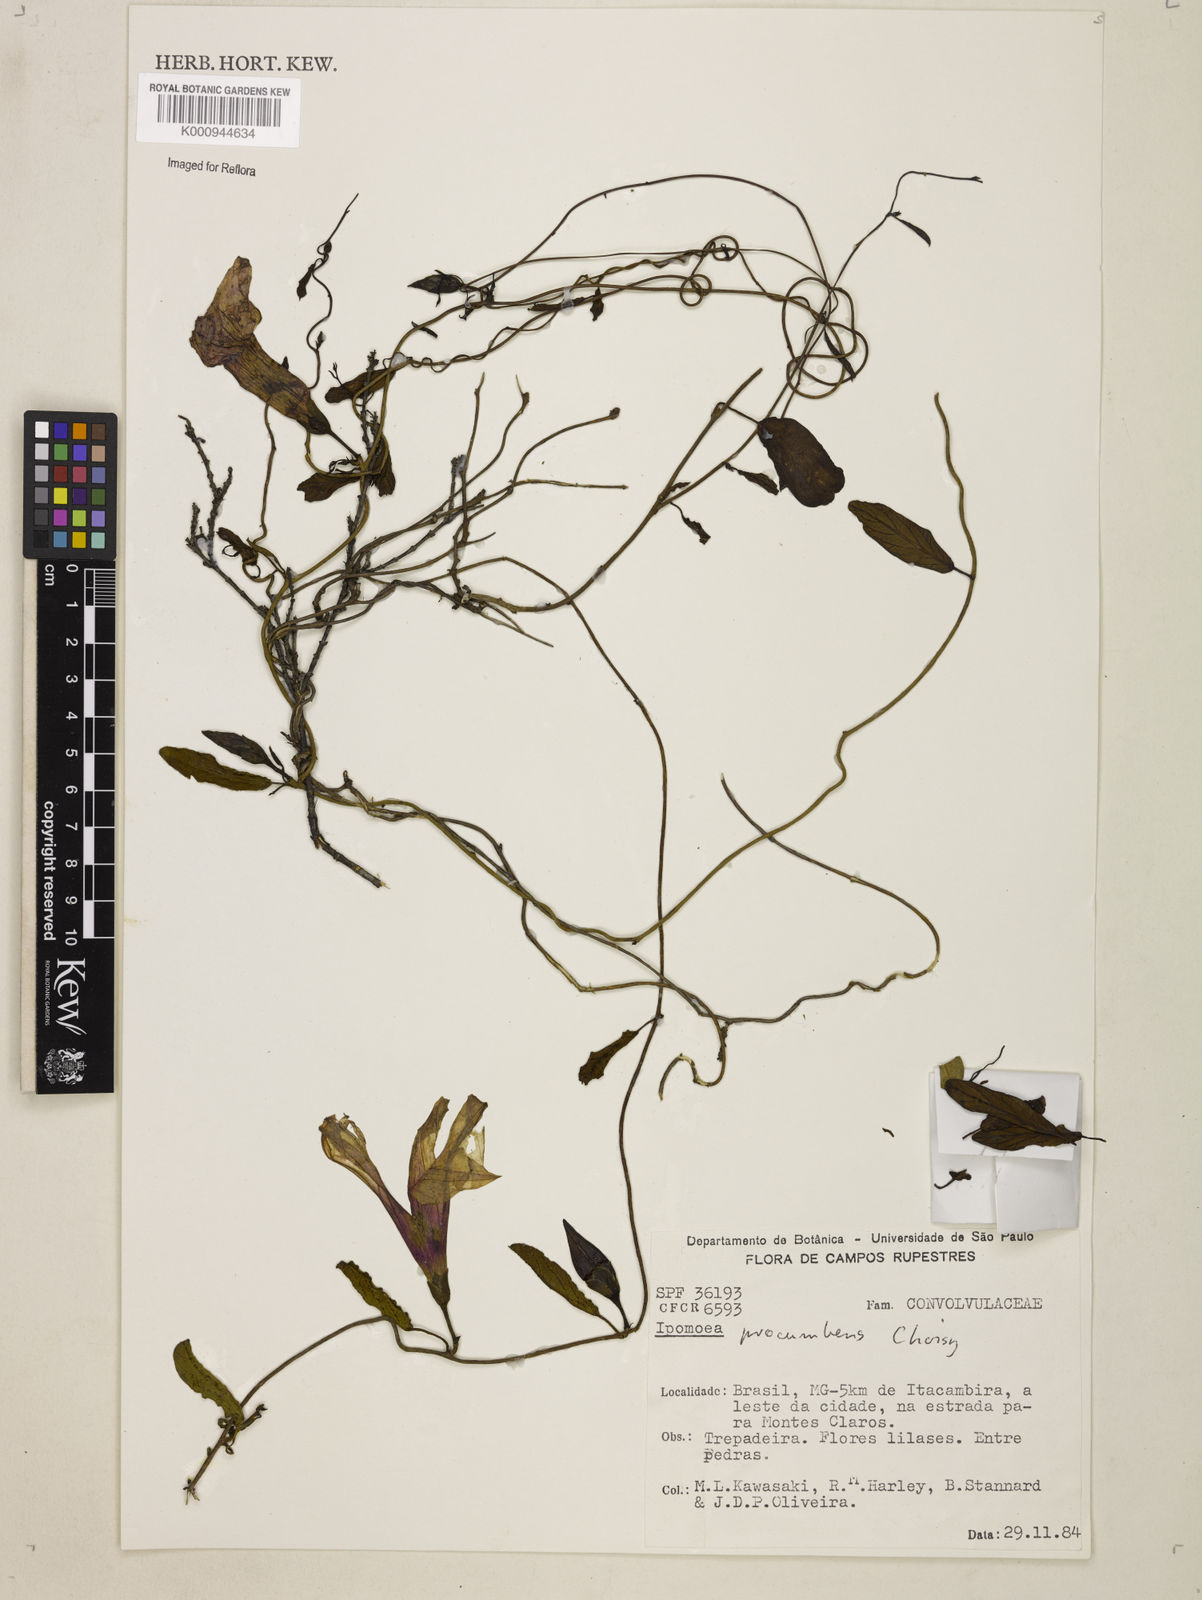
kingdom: Plantae
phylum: Tracheophyta
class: Magnoliopsida
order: Solanales
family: Convolvulaceae
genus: Ipomoea
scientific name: Ipomoea procumbens
